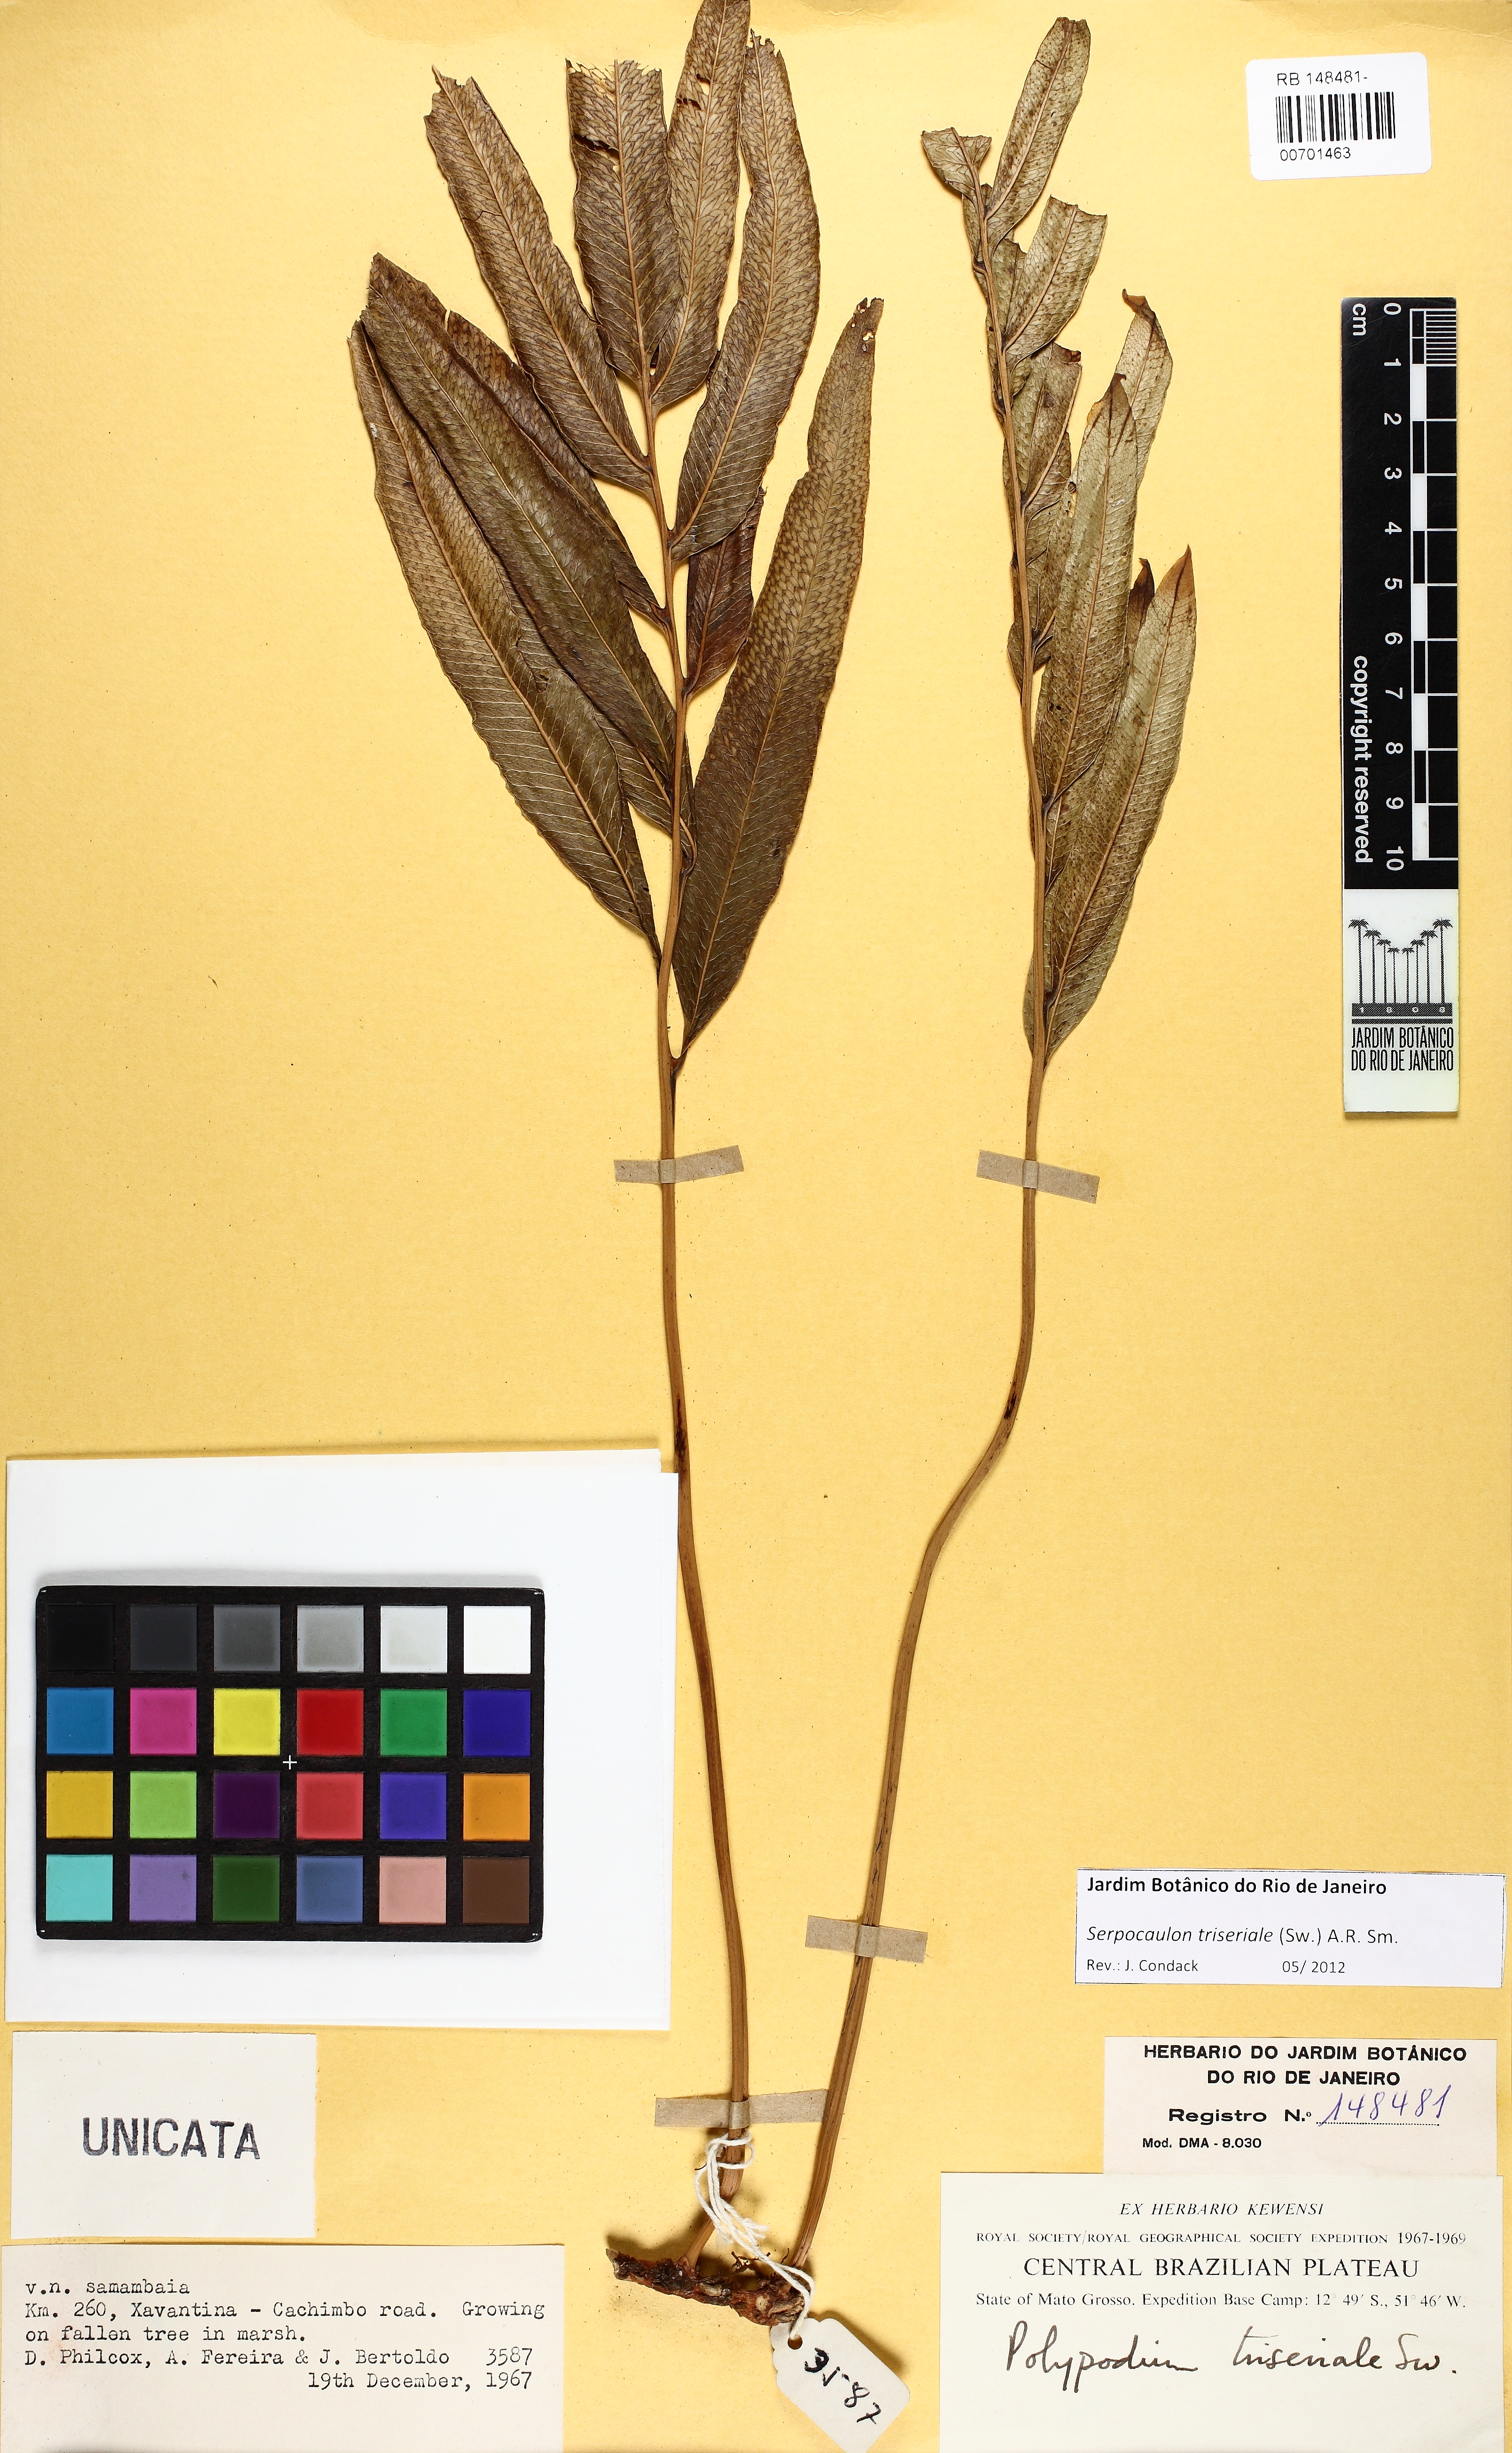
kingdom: Plantae
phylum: Tracheophyta
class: Polypodiopsida
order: Polypodiales
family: Polypodiaceae
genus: Serpocaulon
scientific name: Serpocaulon triseriale
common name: Angle-vein fern
